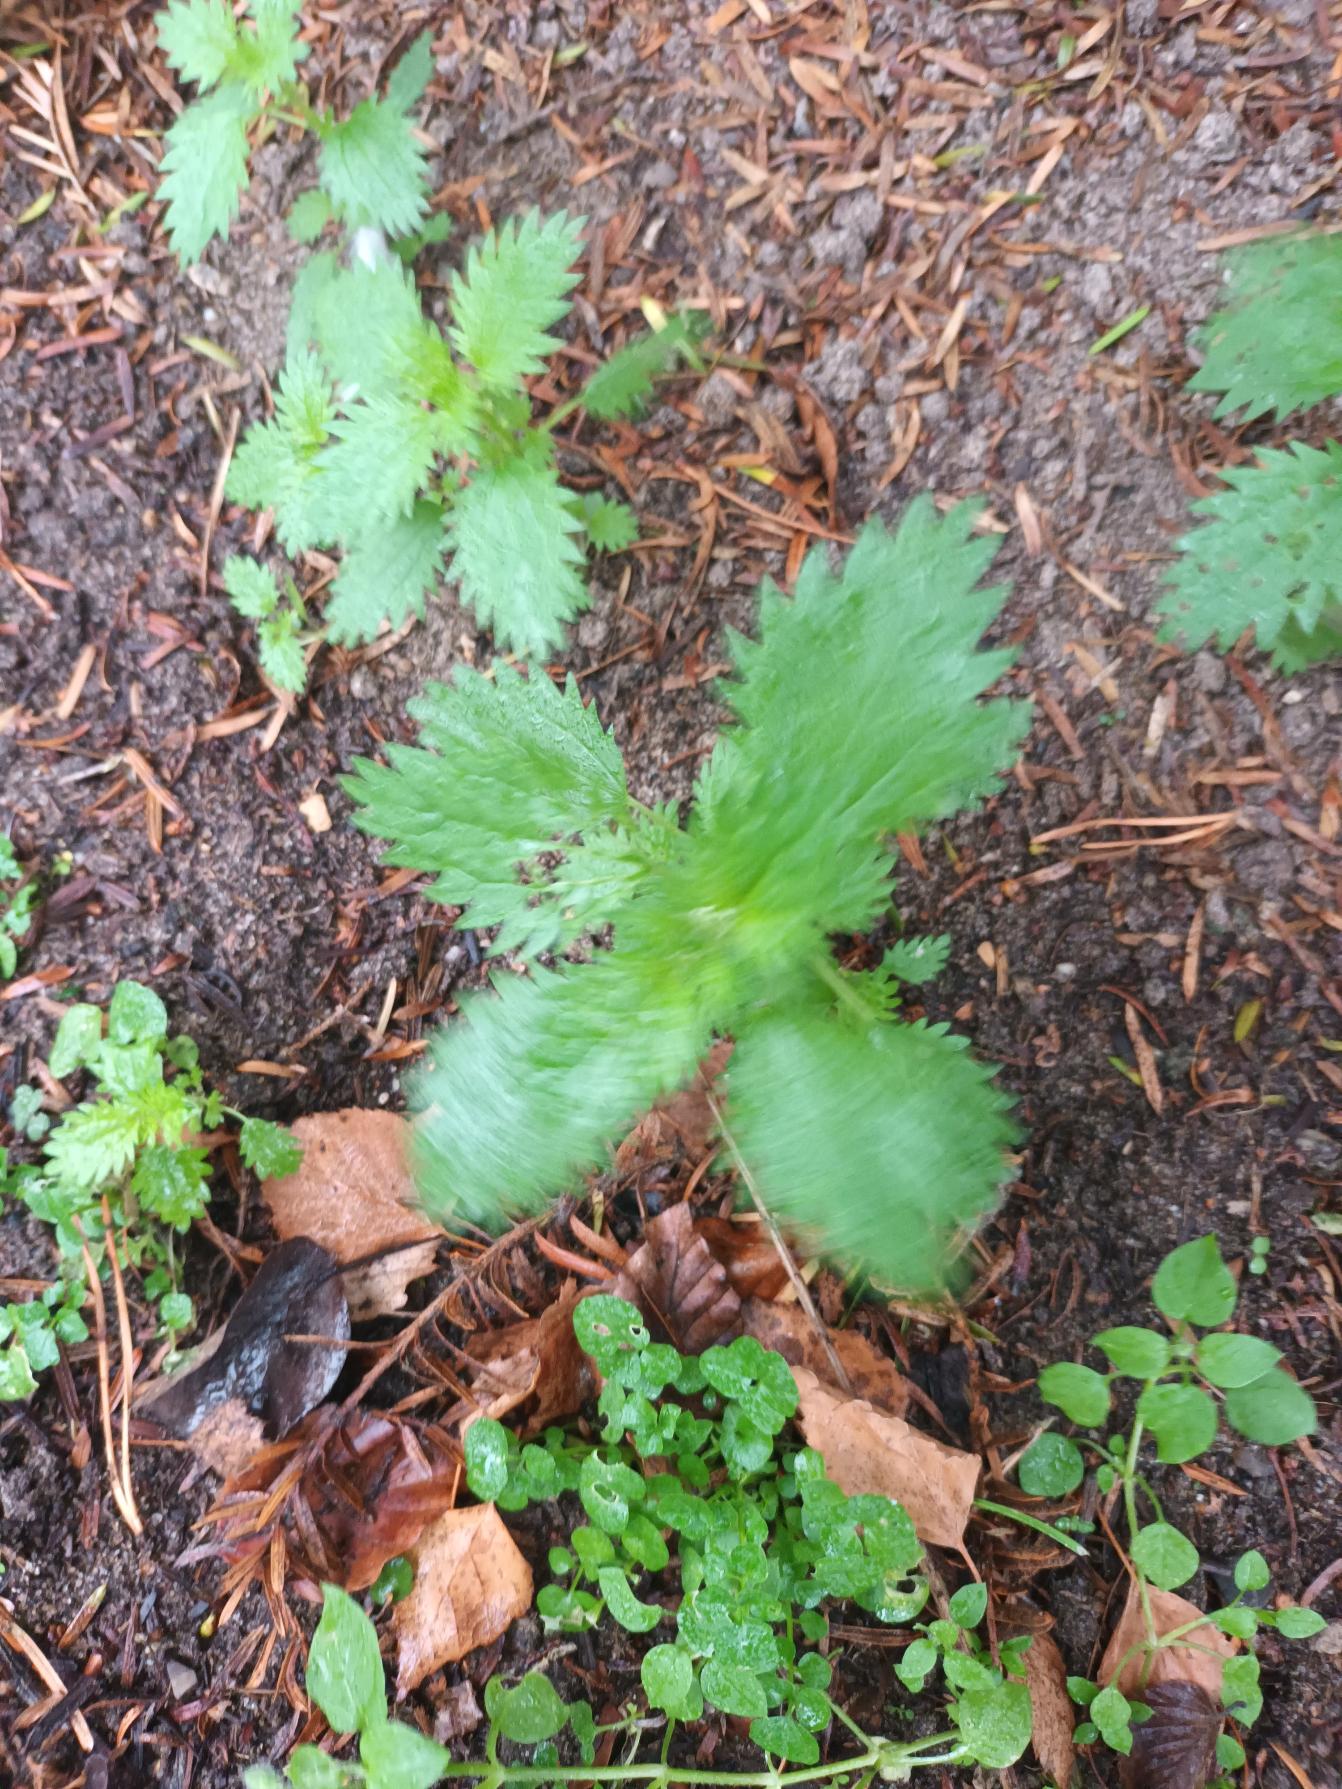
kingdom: Plantae
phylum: Tracheophyta
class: Magnoliopsida
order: Rosales
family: Urticaceae
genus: Urtica
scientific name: Urtica urens
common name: Liden nælde
